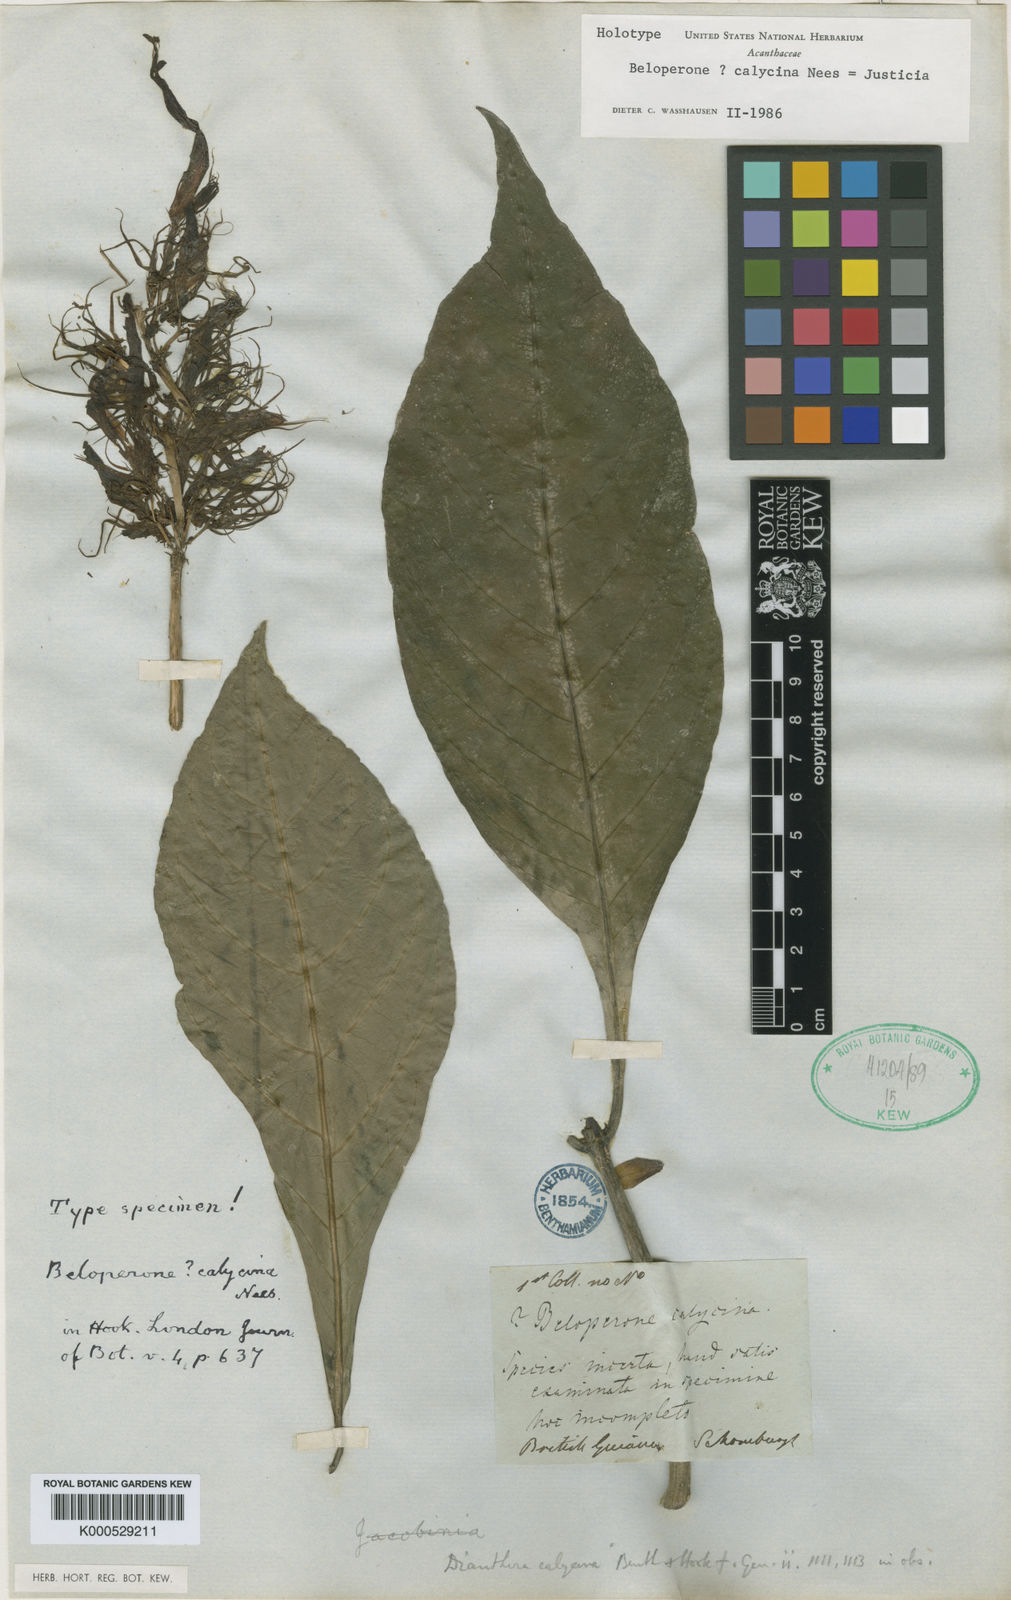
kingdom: Plantae
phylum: Tracheophyta
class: Magnoliopsida
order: Lamiales
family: Acanthaceae
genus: Dianthera
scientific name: Dianthera calycina
